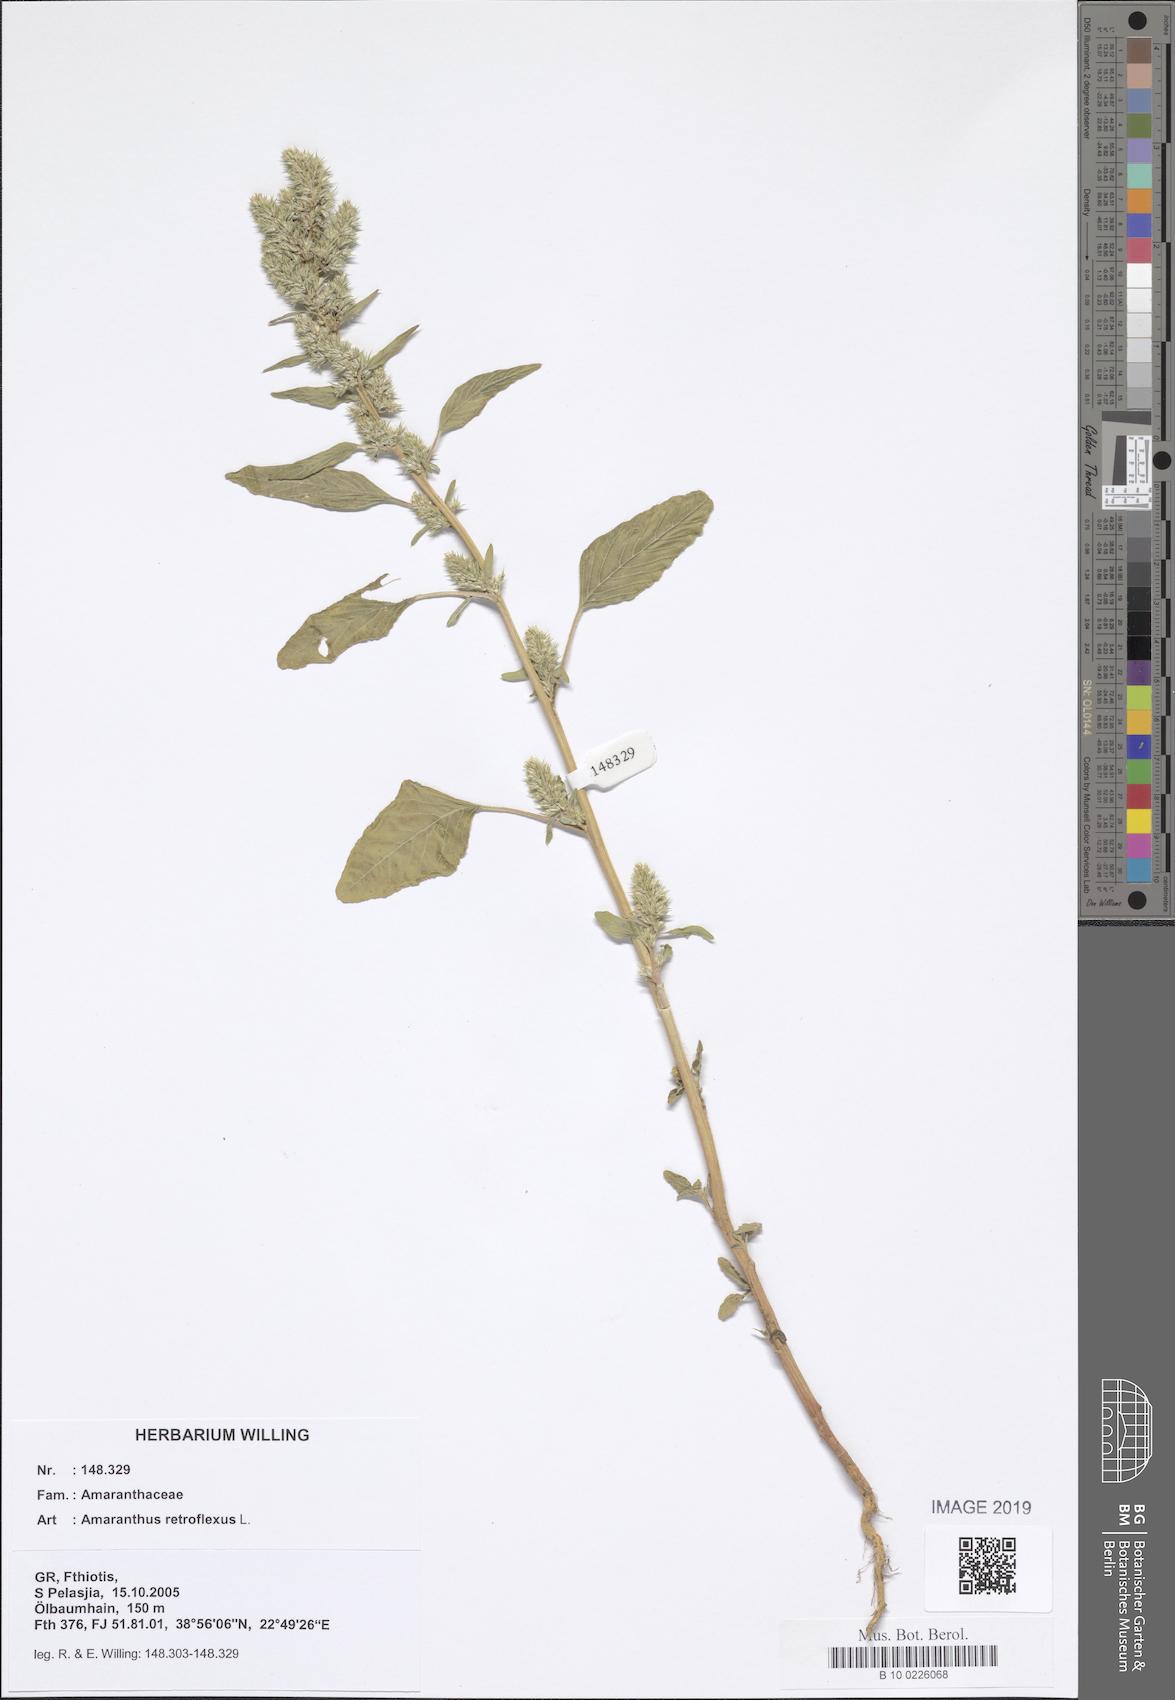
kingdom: Plantae
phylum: Tracheophyta
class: Magnoliopsida
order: Caryophyllales
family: Amaranthaceae
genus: Amaranthus
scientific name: Amaranthus retroflexus
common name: Redroot amaranth
